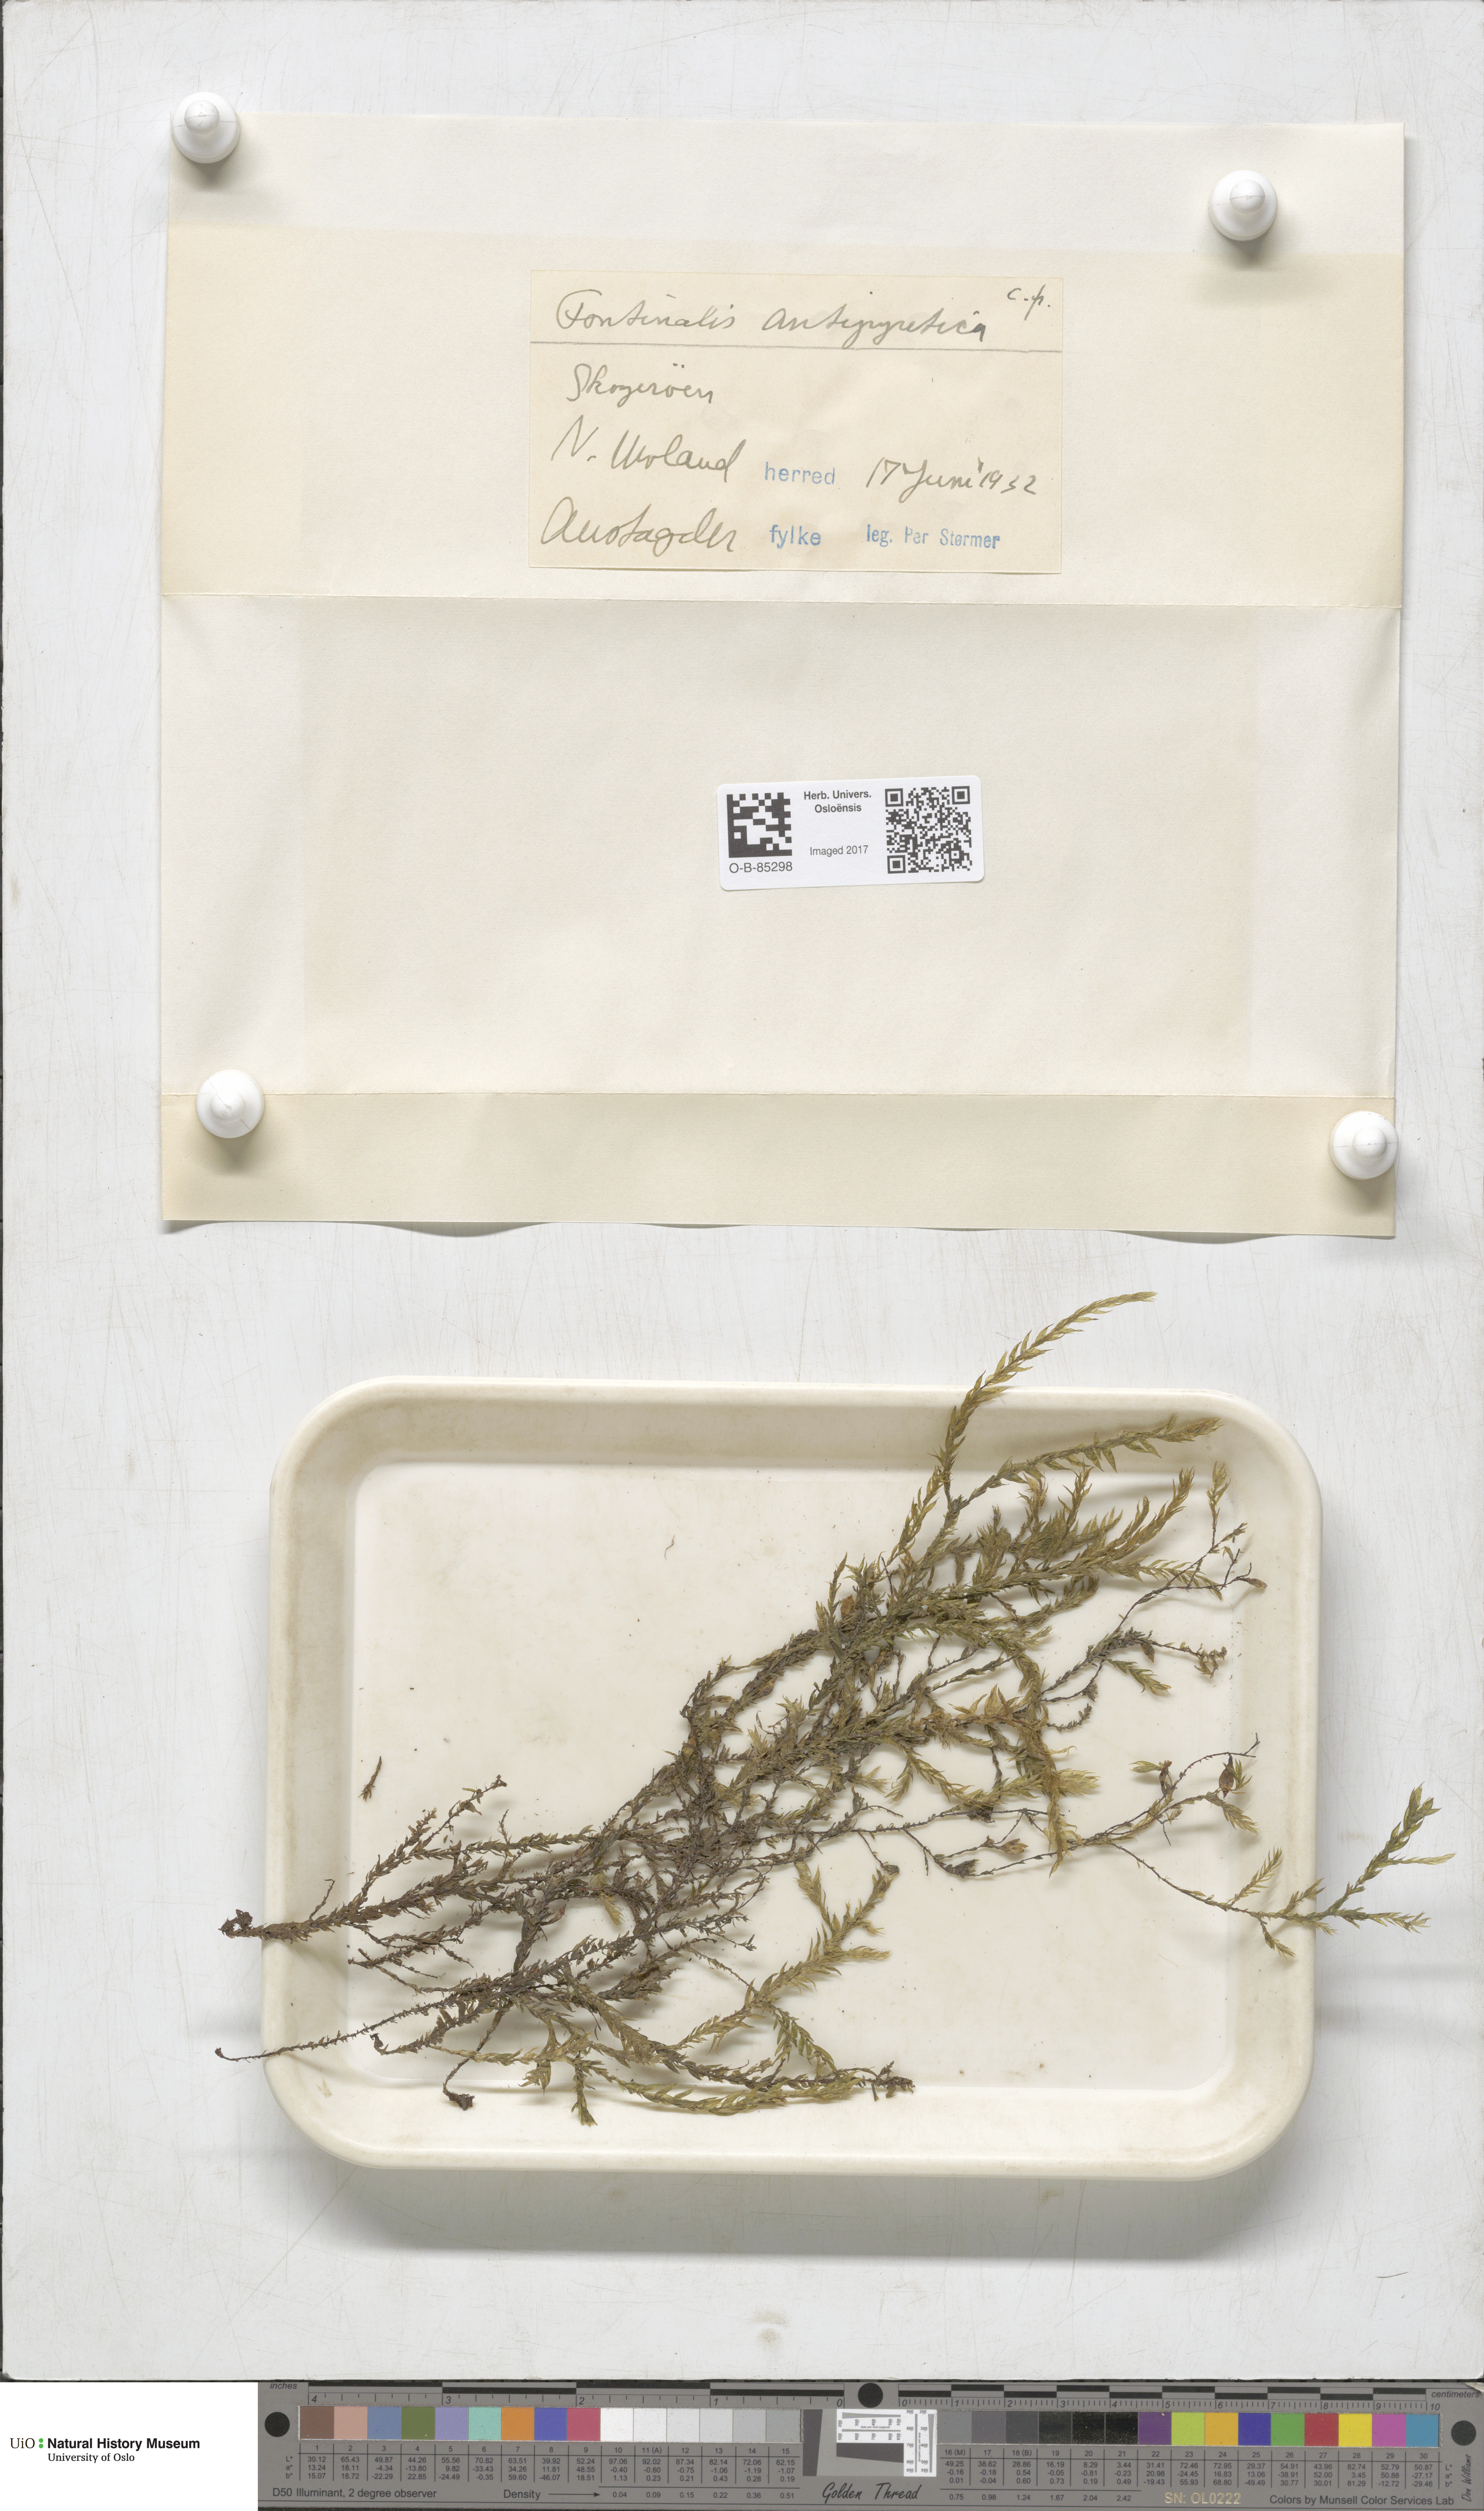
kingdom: Plantae
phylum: Bryophyta
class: Bryopsida
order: Hypnales
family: Fontinalaceae
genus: Fontinalis
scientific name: Fontinalis antipyretica
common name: Greater water-moss
